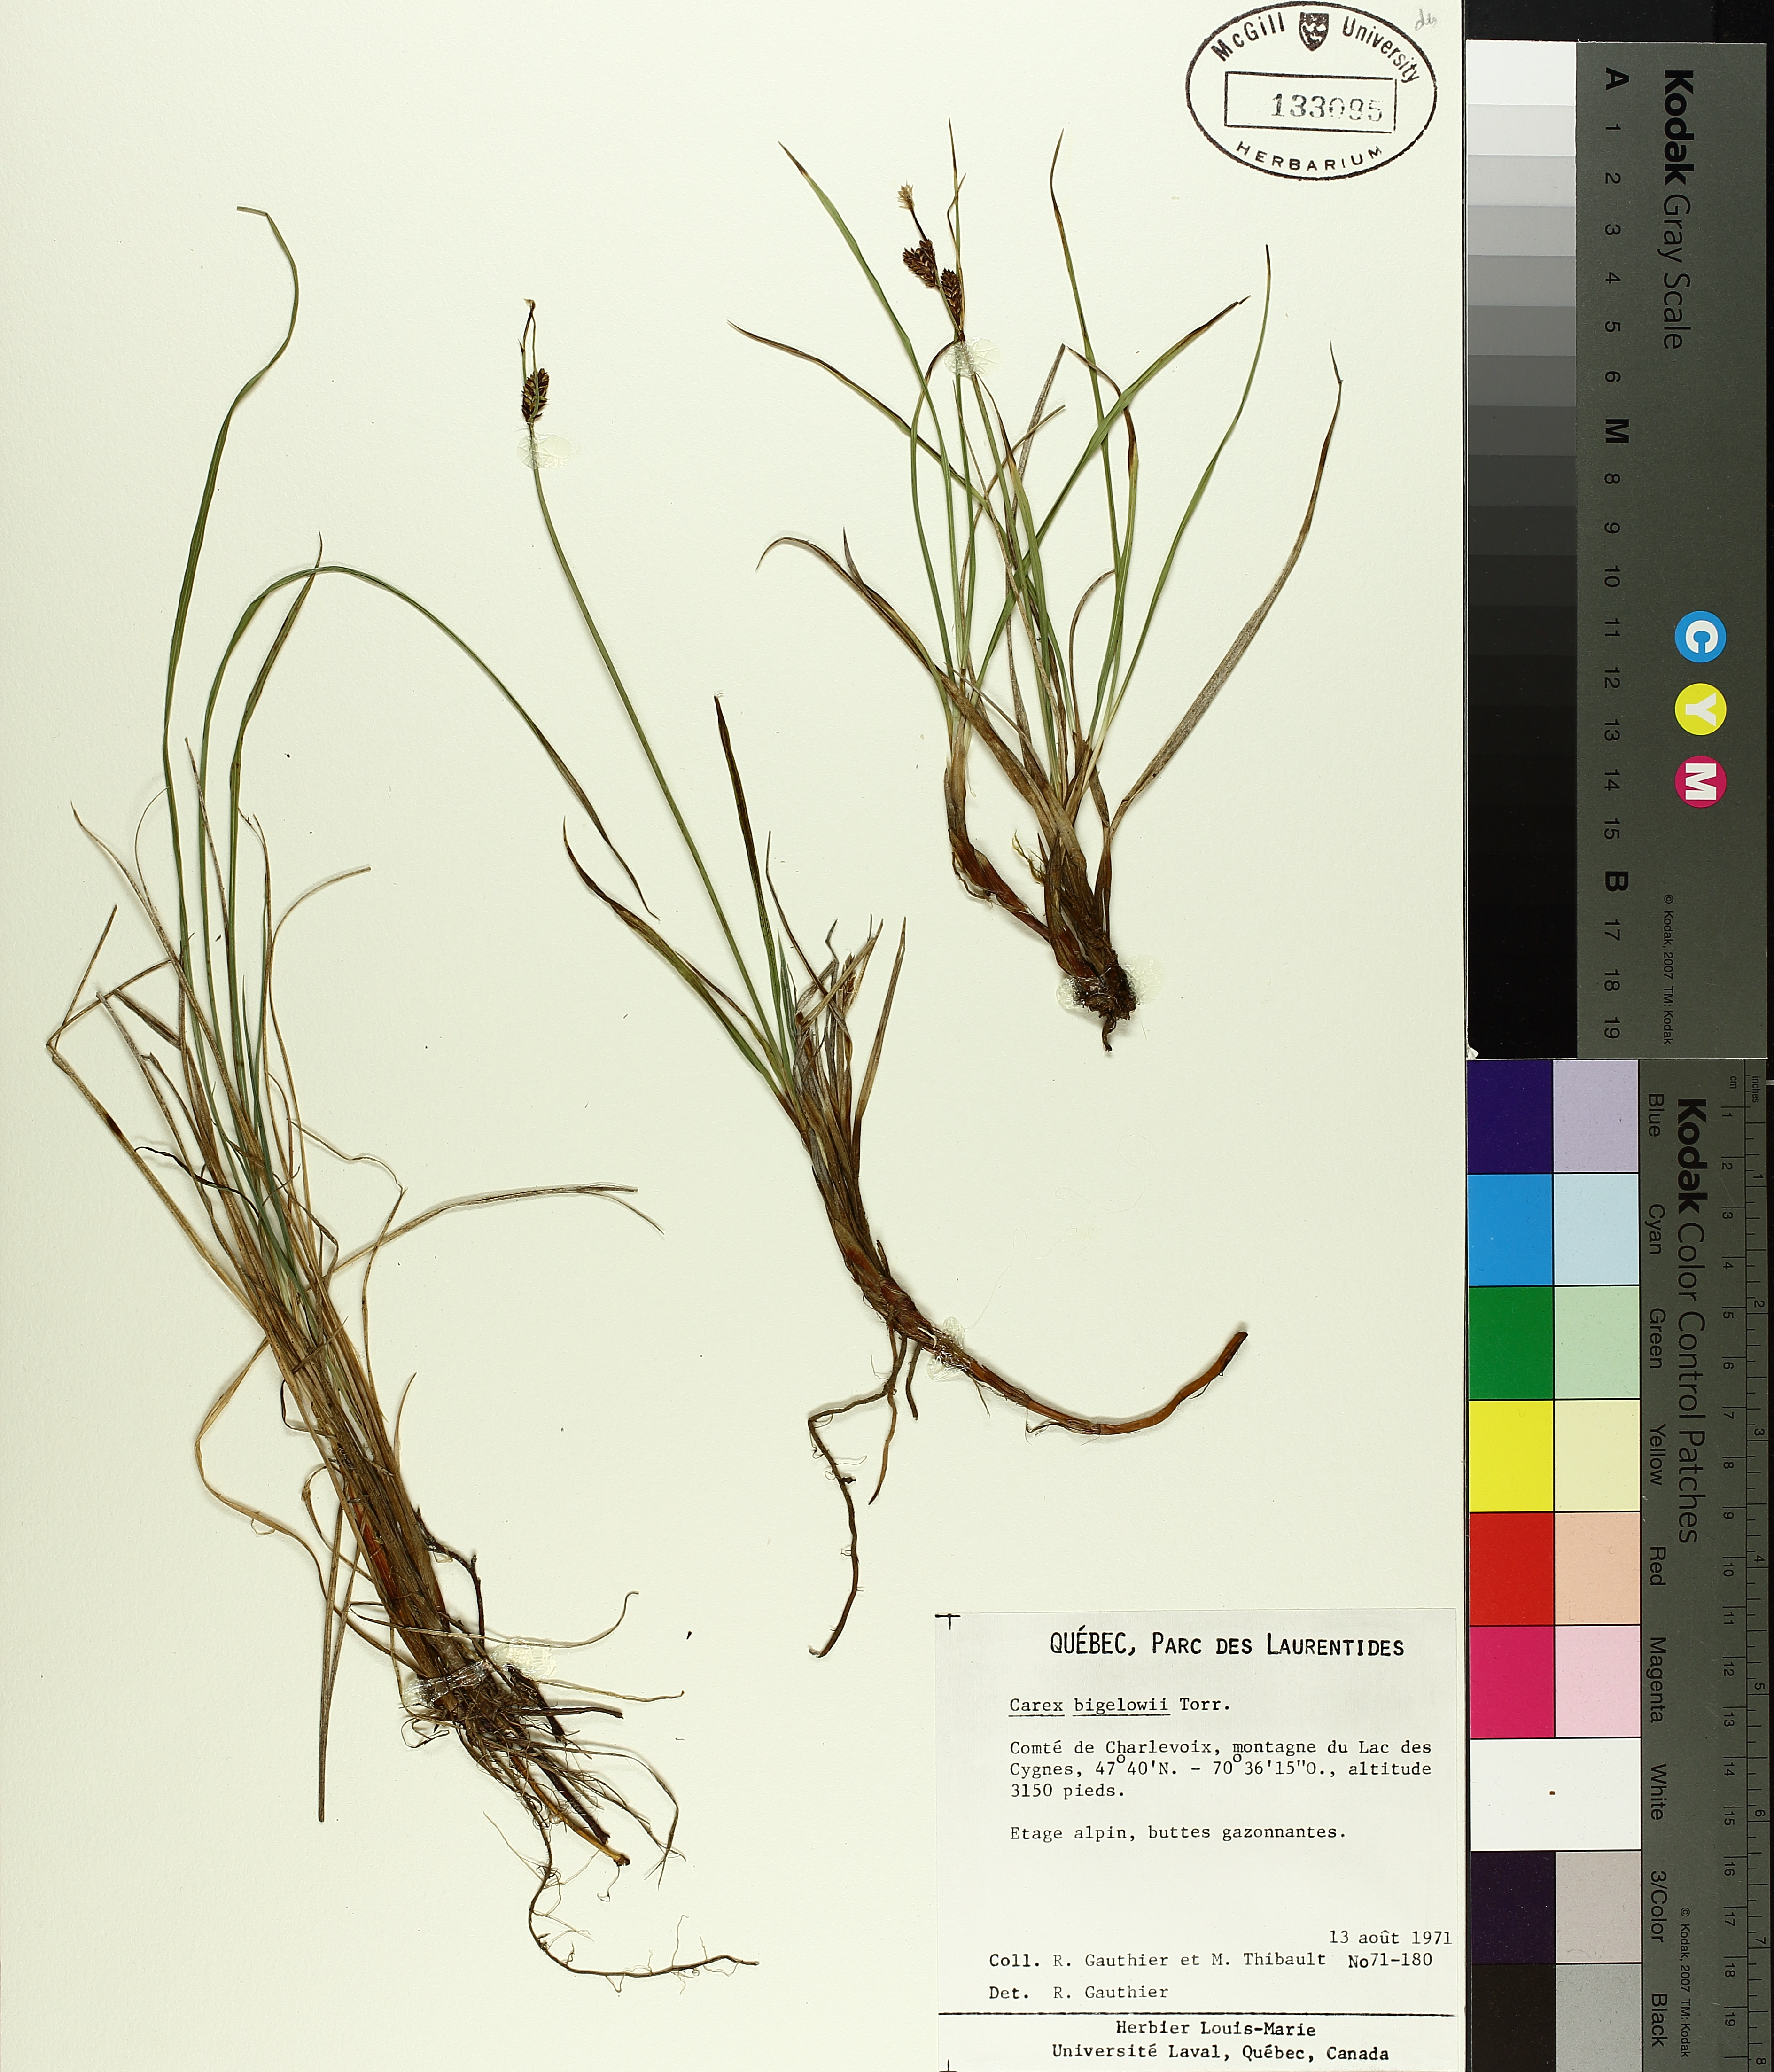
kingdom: Plantae
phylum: Tracheophyta
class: Liliopsida
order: Poales
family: Cyperaceae
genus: Carex
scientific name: Carex bigelowii
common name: Stiff sedge
